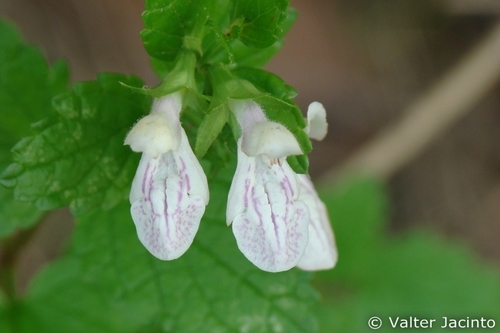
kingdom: Plantae
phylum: Tracheophyta
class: Magnoliopsida
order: Lamiales
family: Lamiaceae
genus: Prasium
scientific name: Prasium majus
